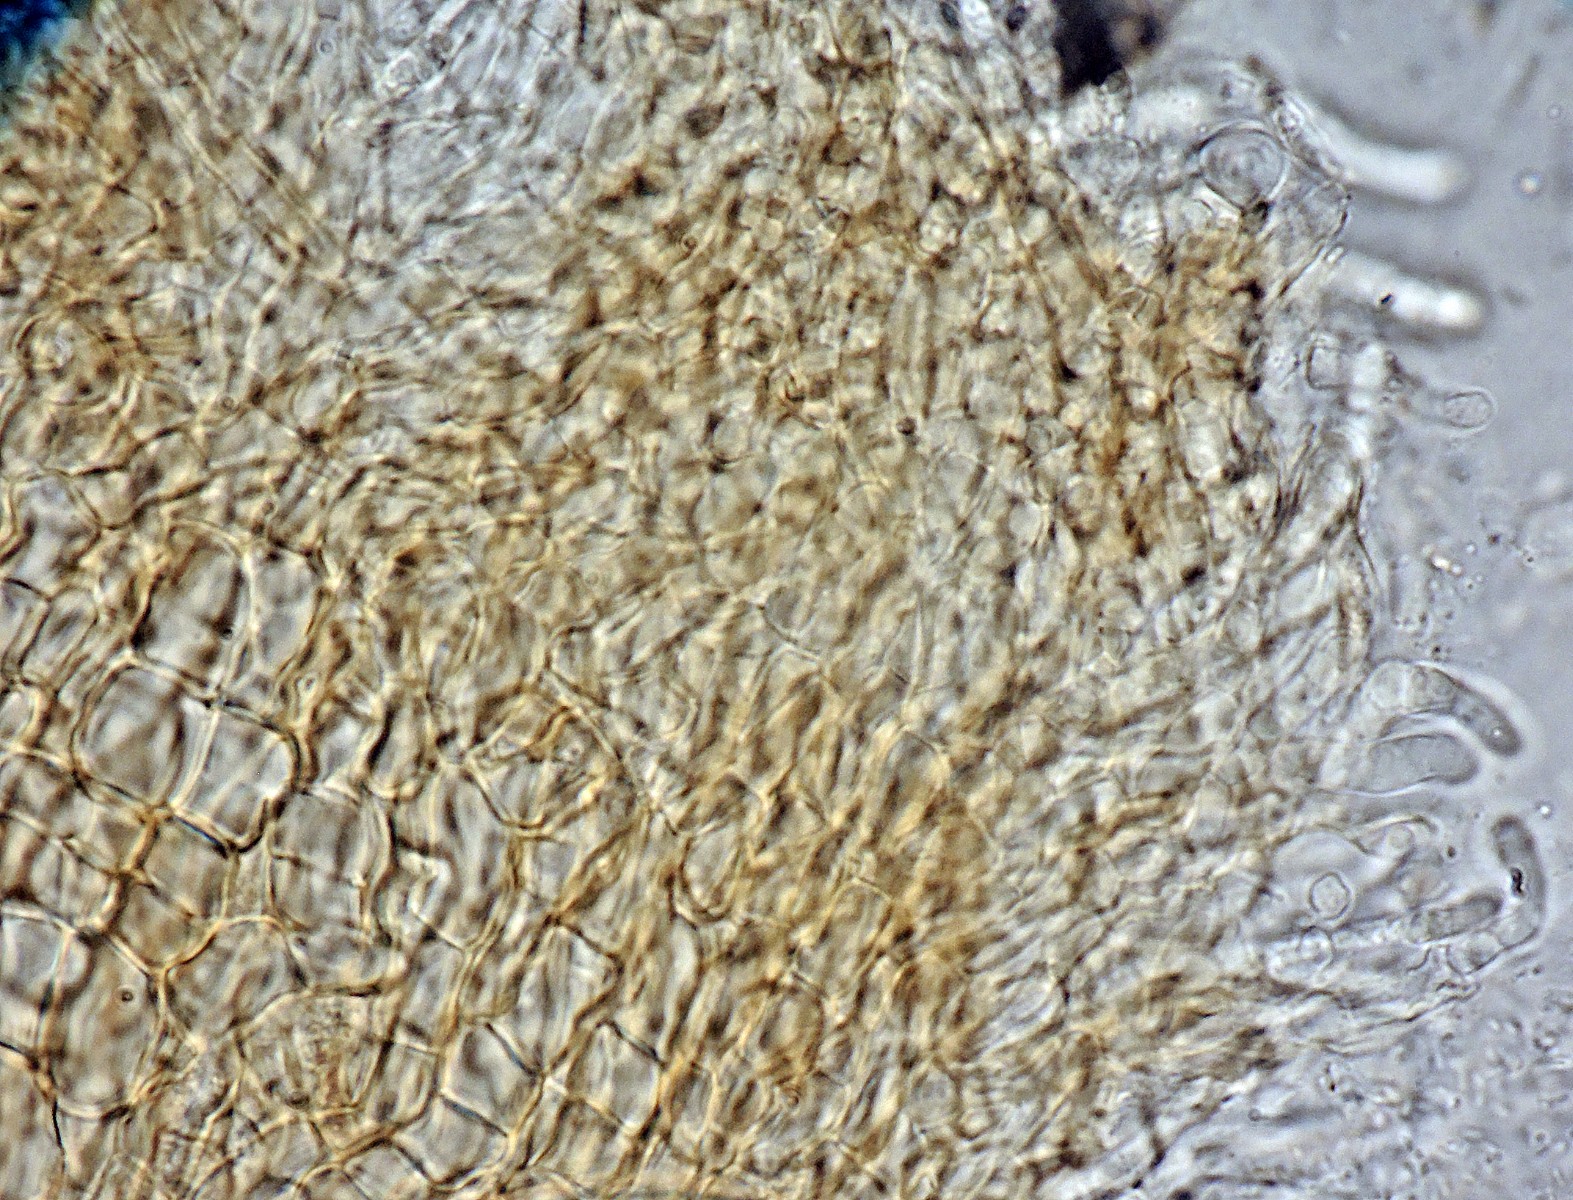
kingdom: Fungi
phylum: Ascomycota
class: Arthoniomycetes
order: Arthoniales
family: Arthoniaceae
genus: Naevia
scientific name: Naevia
